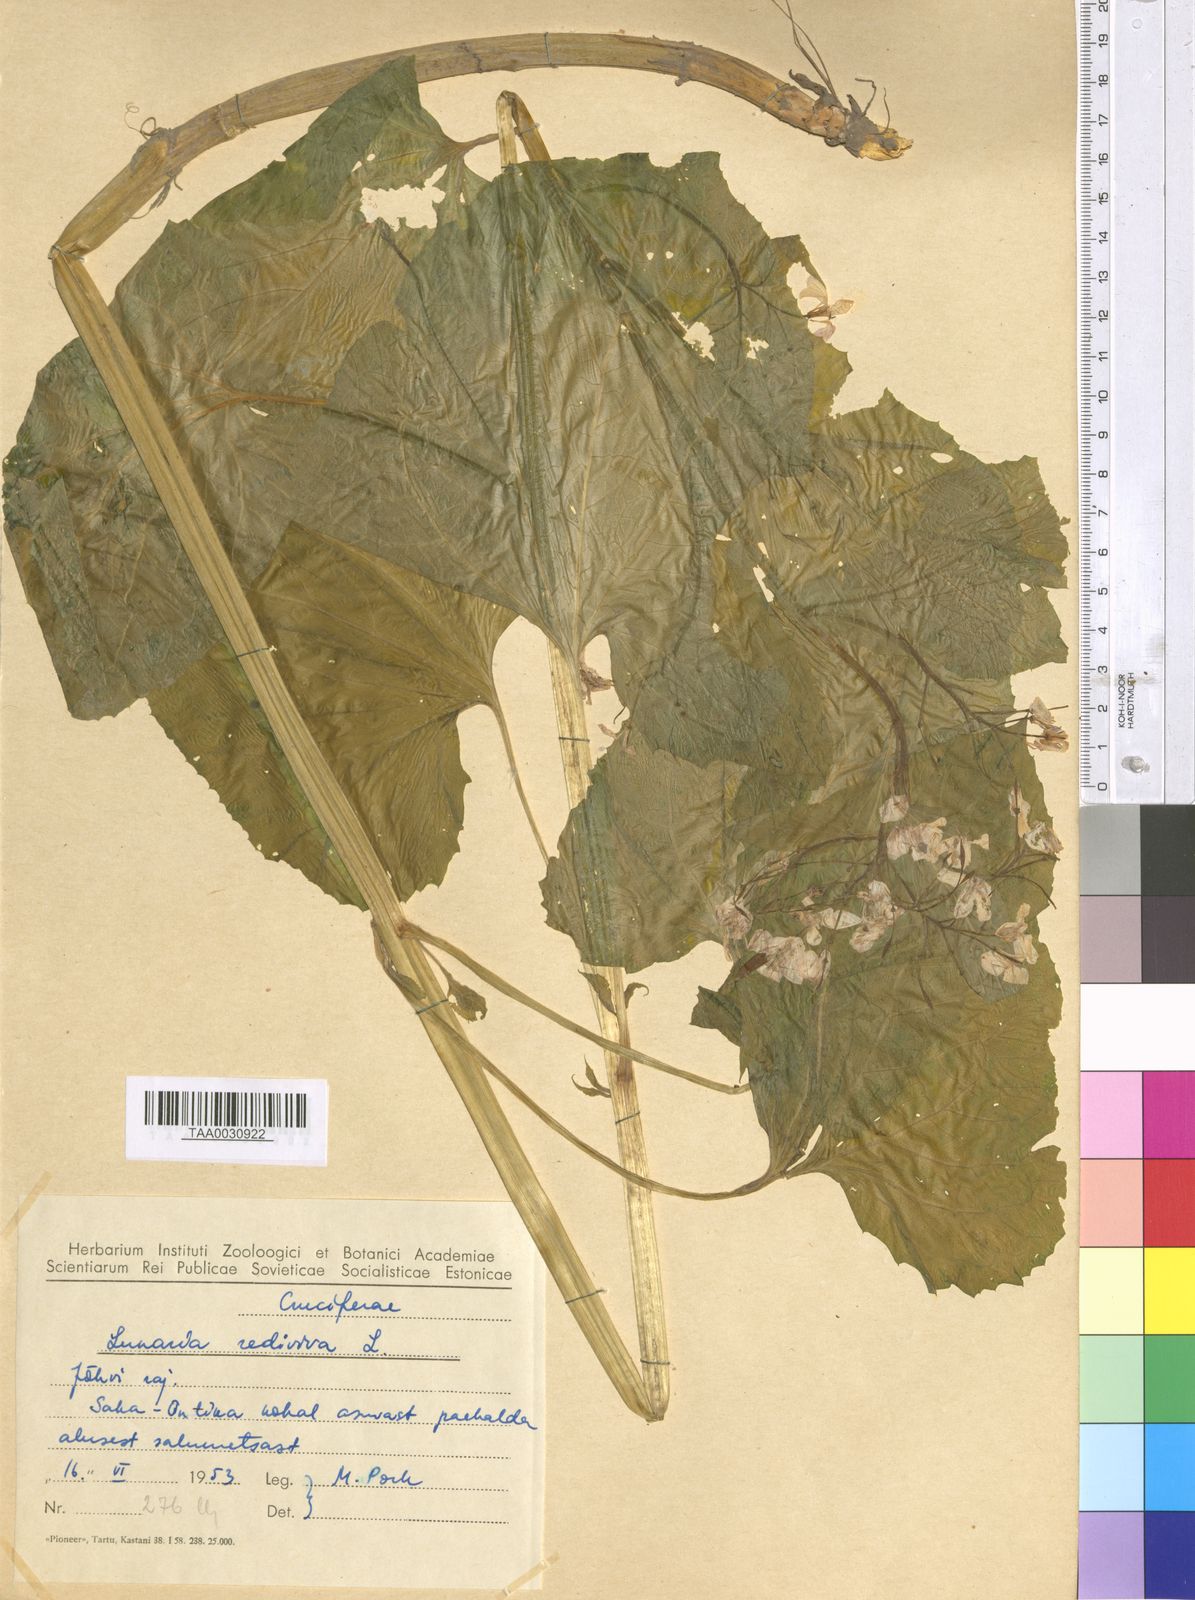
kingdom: Plantae
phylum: Tracheophyta
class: Magnoliopsida
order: Brassicales
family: Brassicaceae
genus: Lunaria
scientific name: Lunaria rediviva
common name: Perennial honesty
